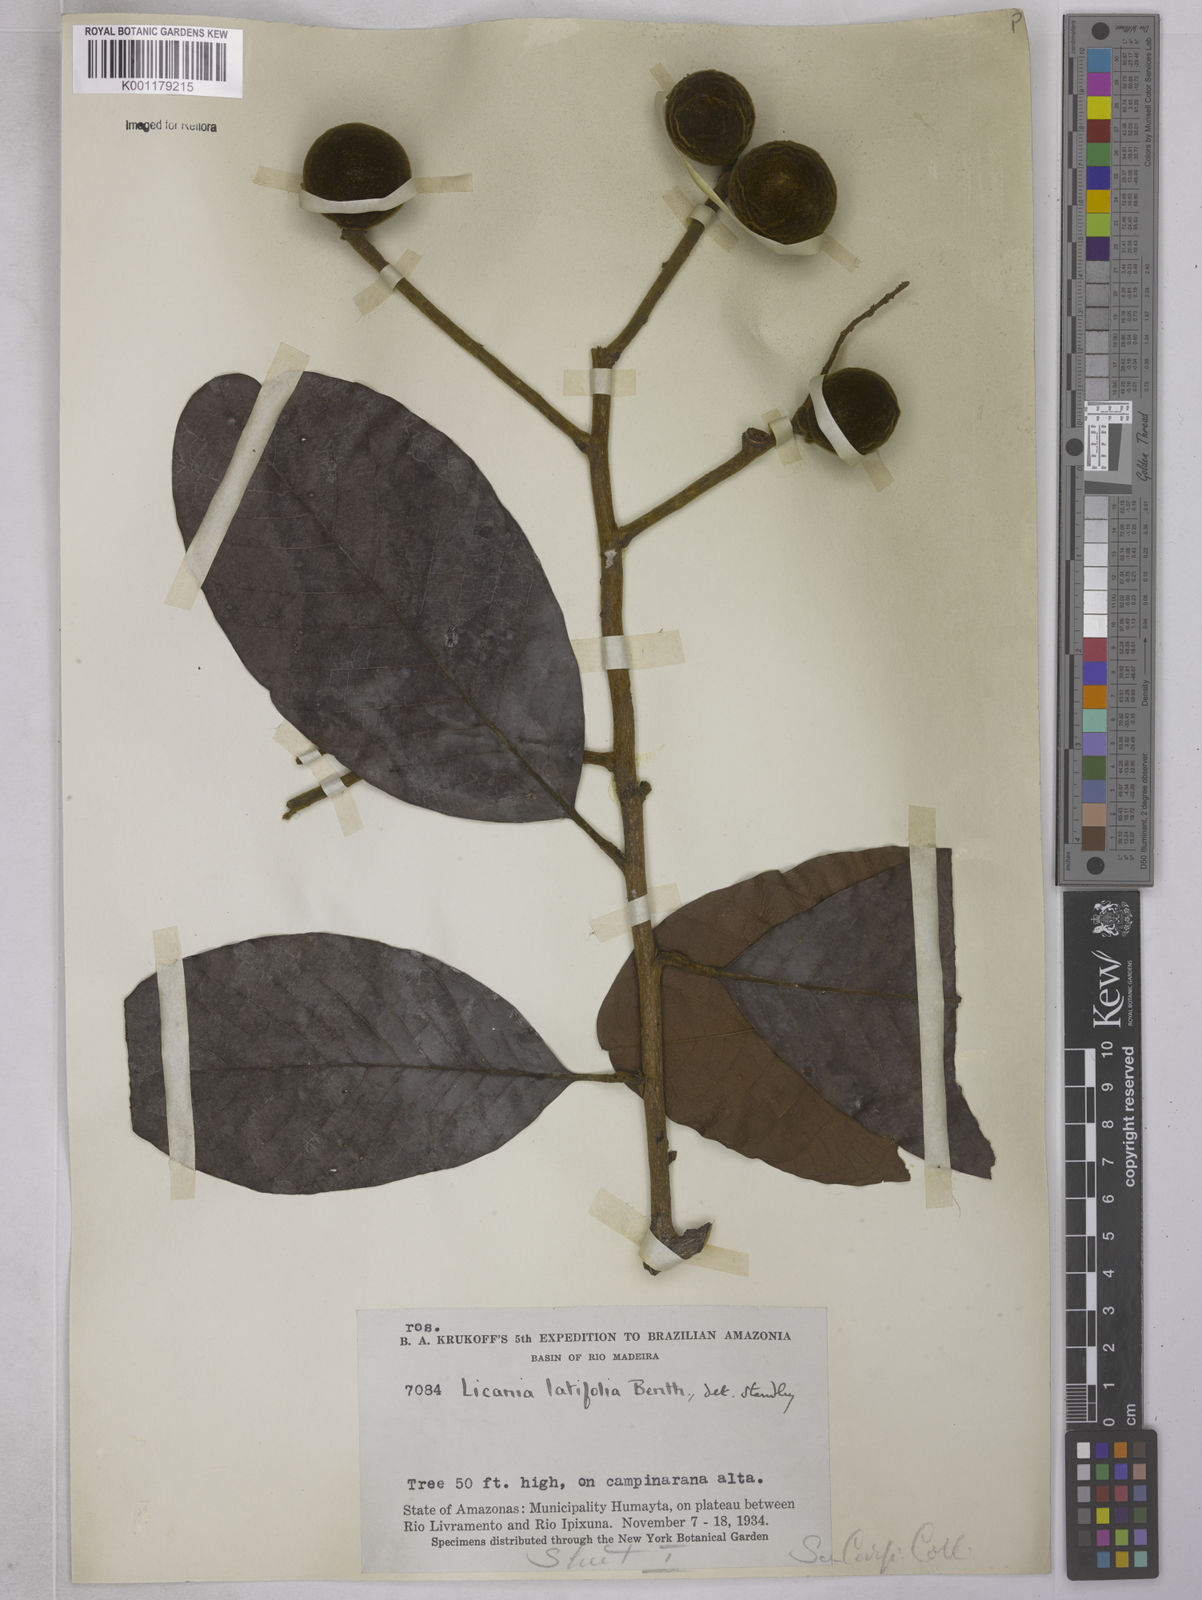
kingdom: Plantae
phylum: Tracheophyta
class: Magnoliopsida
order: Malpighiales
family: Chrysobalanaceae
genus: Hymenopus
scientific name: Hymenopus latifolius
